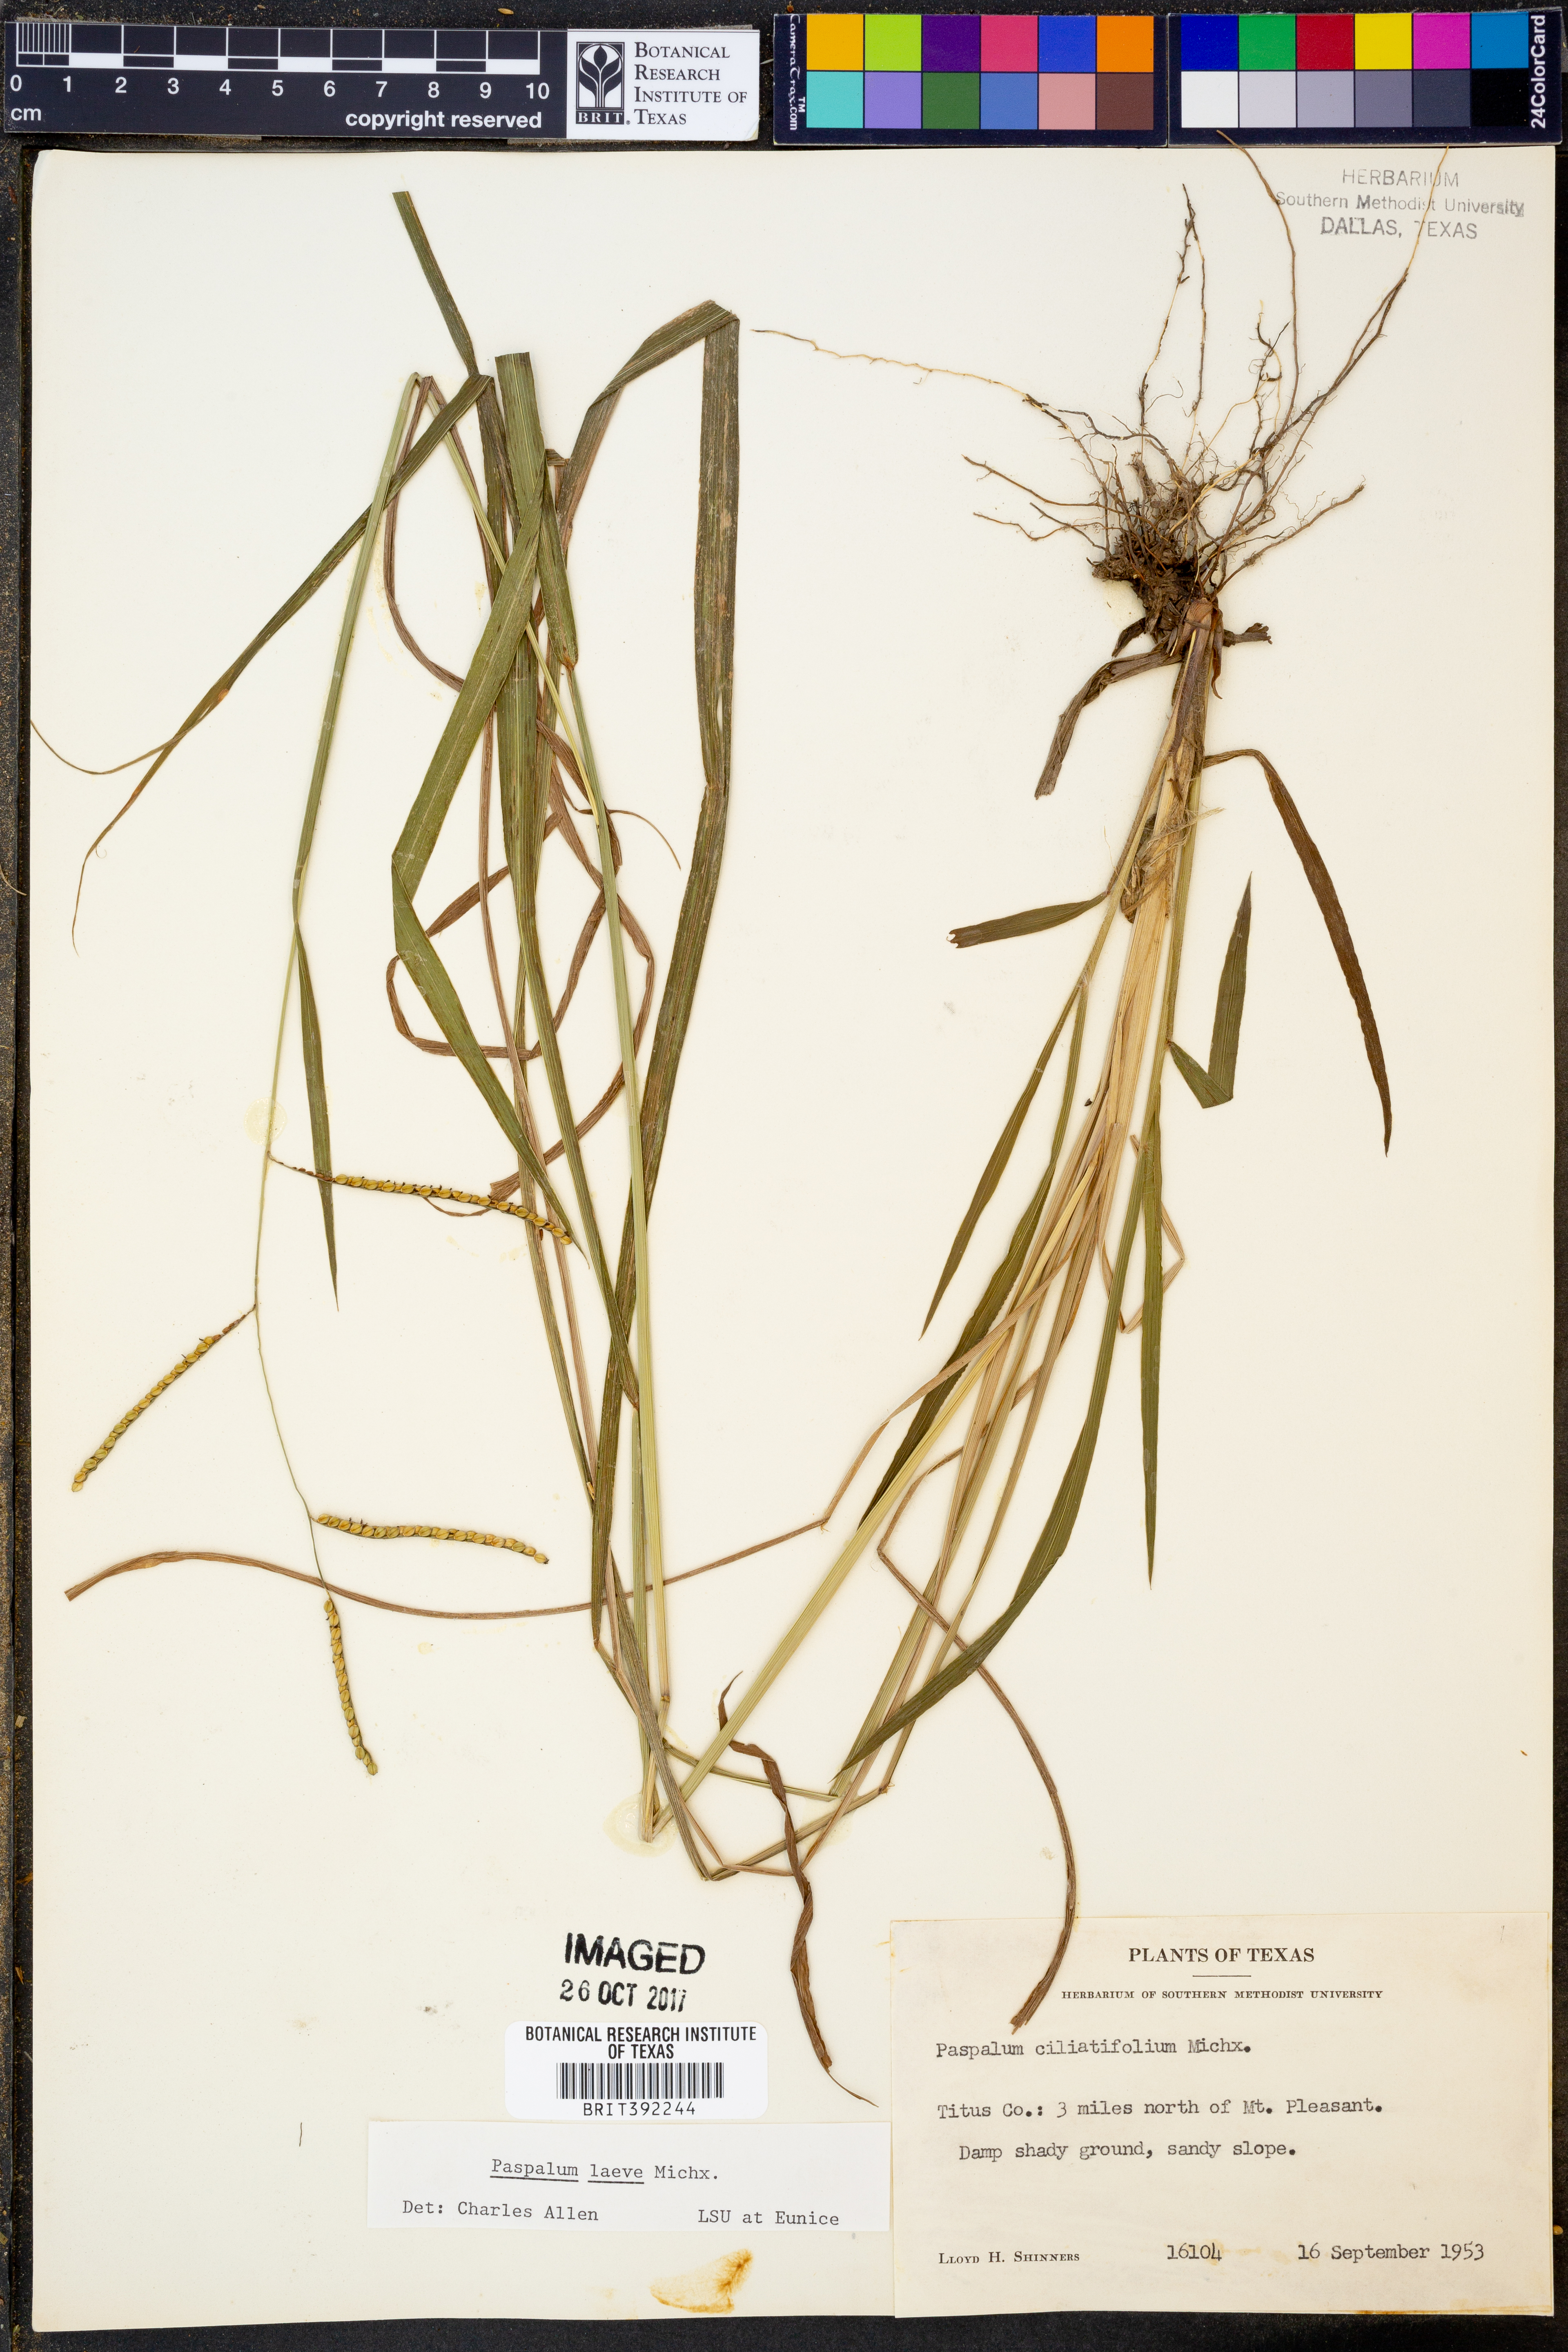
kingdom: Plantae
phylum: Tracheophyta
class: Liliopsida
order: Poales
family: Poaceae
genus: Paspalum
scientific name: Paspalum laeve
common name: Field paspalum
